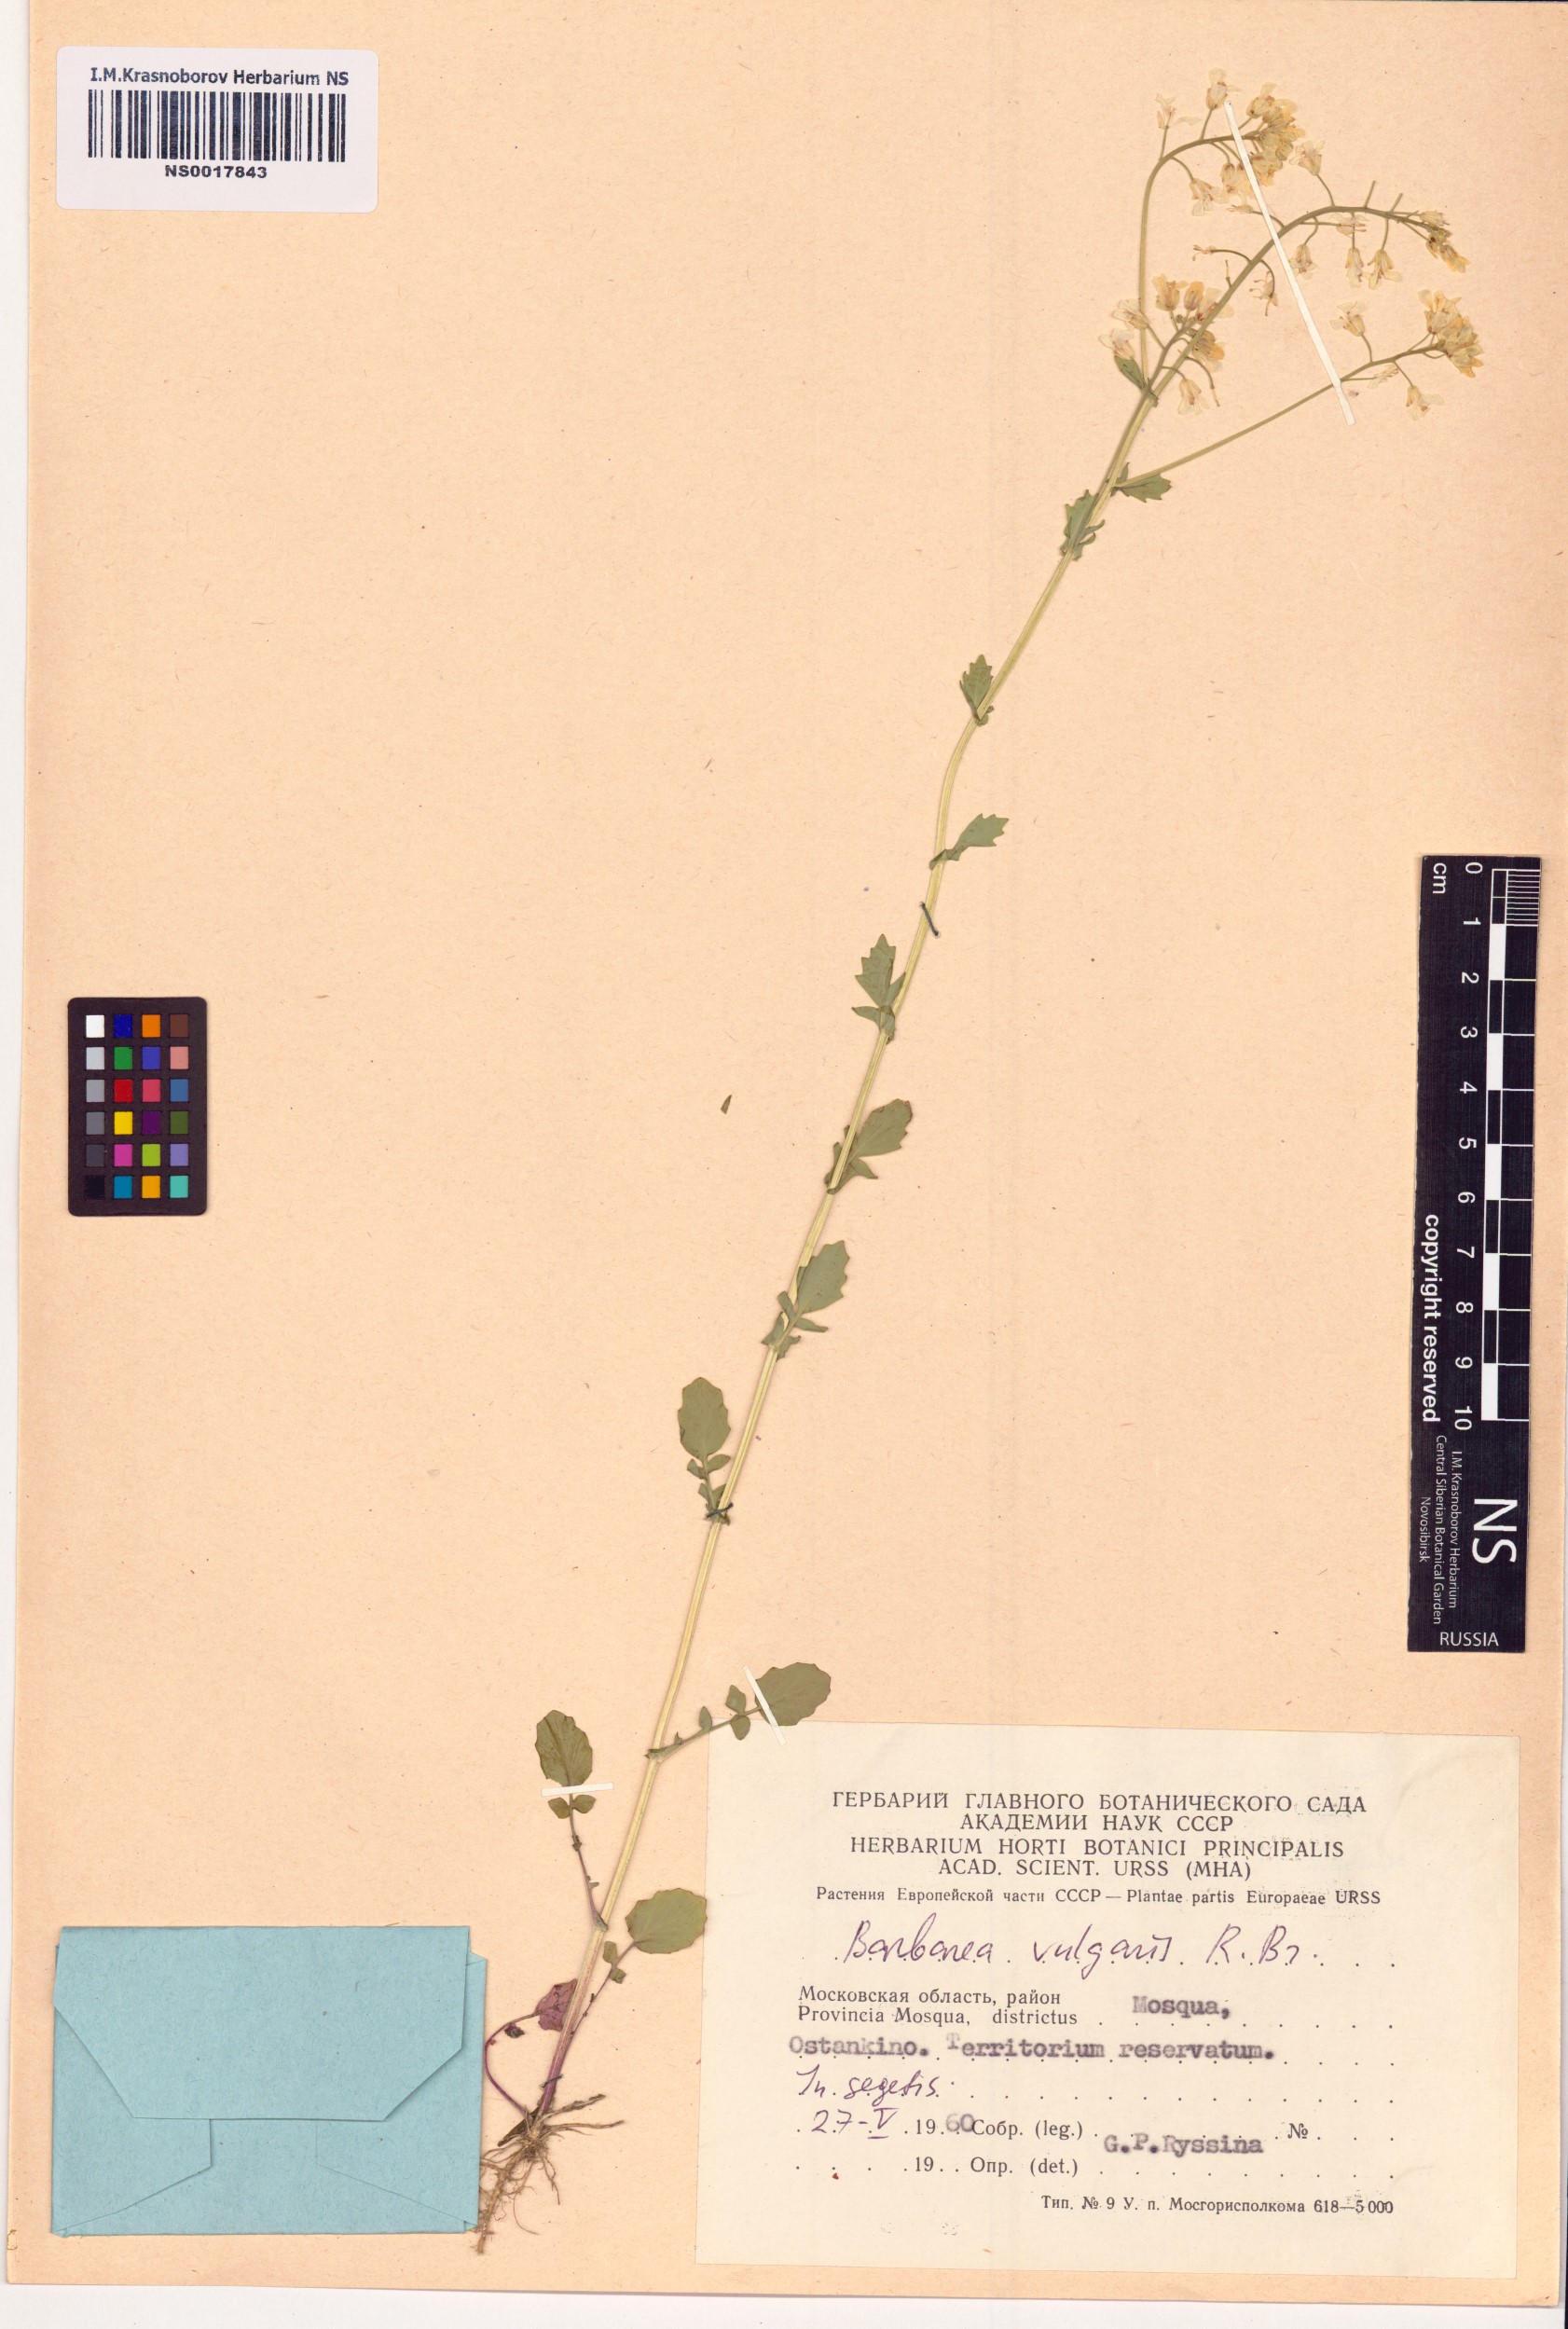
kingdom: Plantae
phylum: Tracheophyta
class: Magnoliopsida
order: Brassicales
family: Brassicaceae
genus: Barbarea
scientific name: Barbarea vulgaris
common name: Cressy-greens
